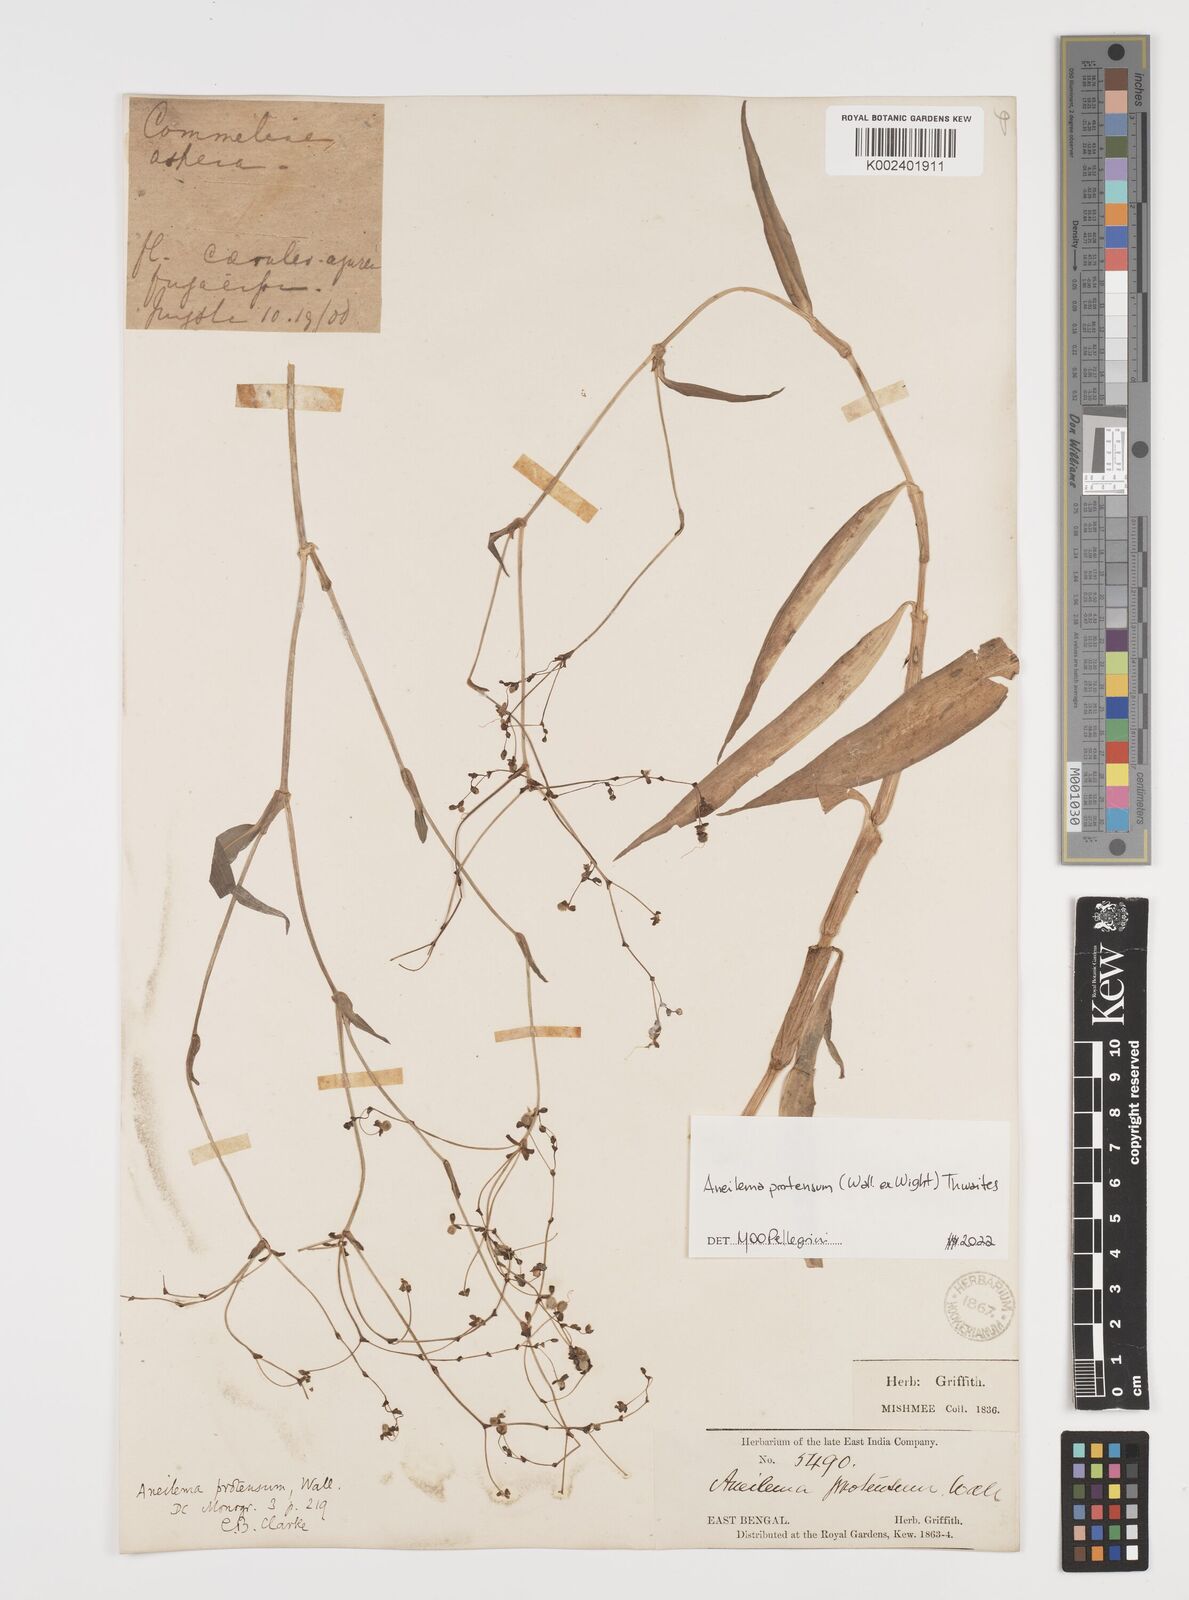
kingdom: Plantae
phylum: Tracheophyta
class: Liliopsida
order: Commelinales
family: Commelinaceae
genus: Rhopalephora
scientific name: Rhopalephora
